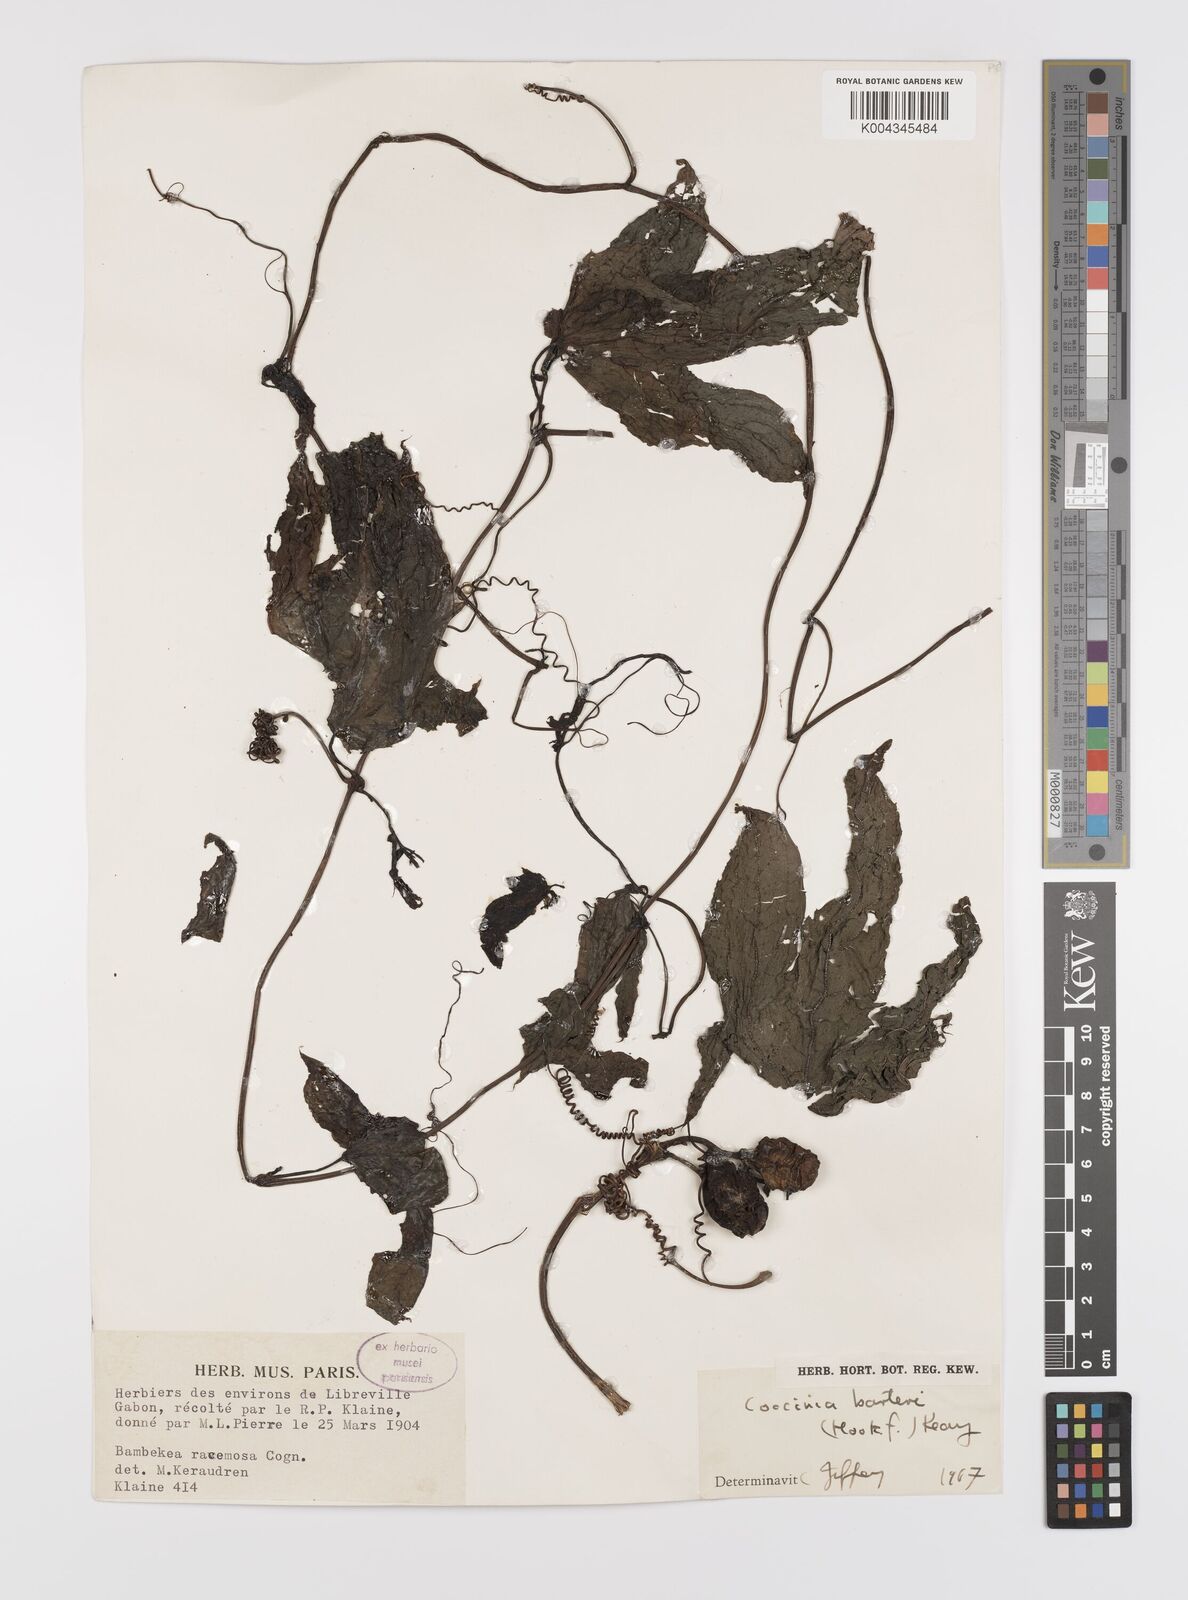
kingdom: Plantae
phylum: Tracheophyta
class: Magnoliopsida
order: Cucurbitales
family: Cucurbitaceae
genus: Coccinia
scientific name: Coccinia barteri
